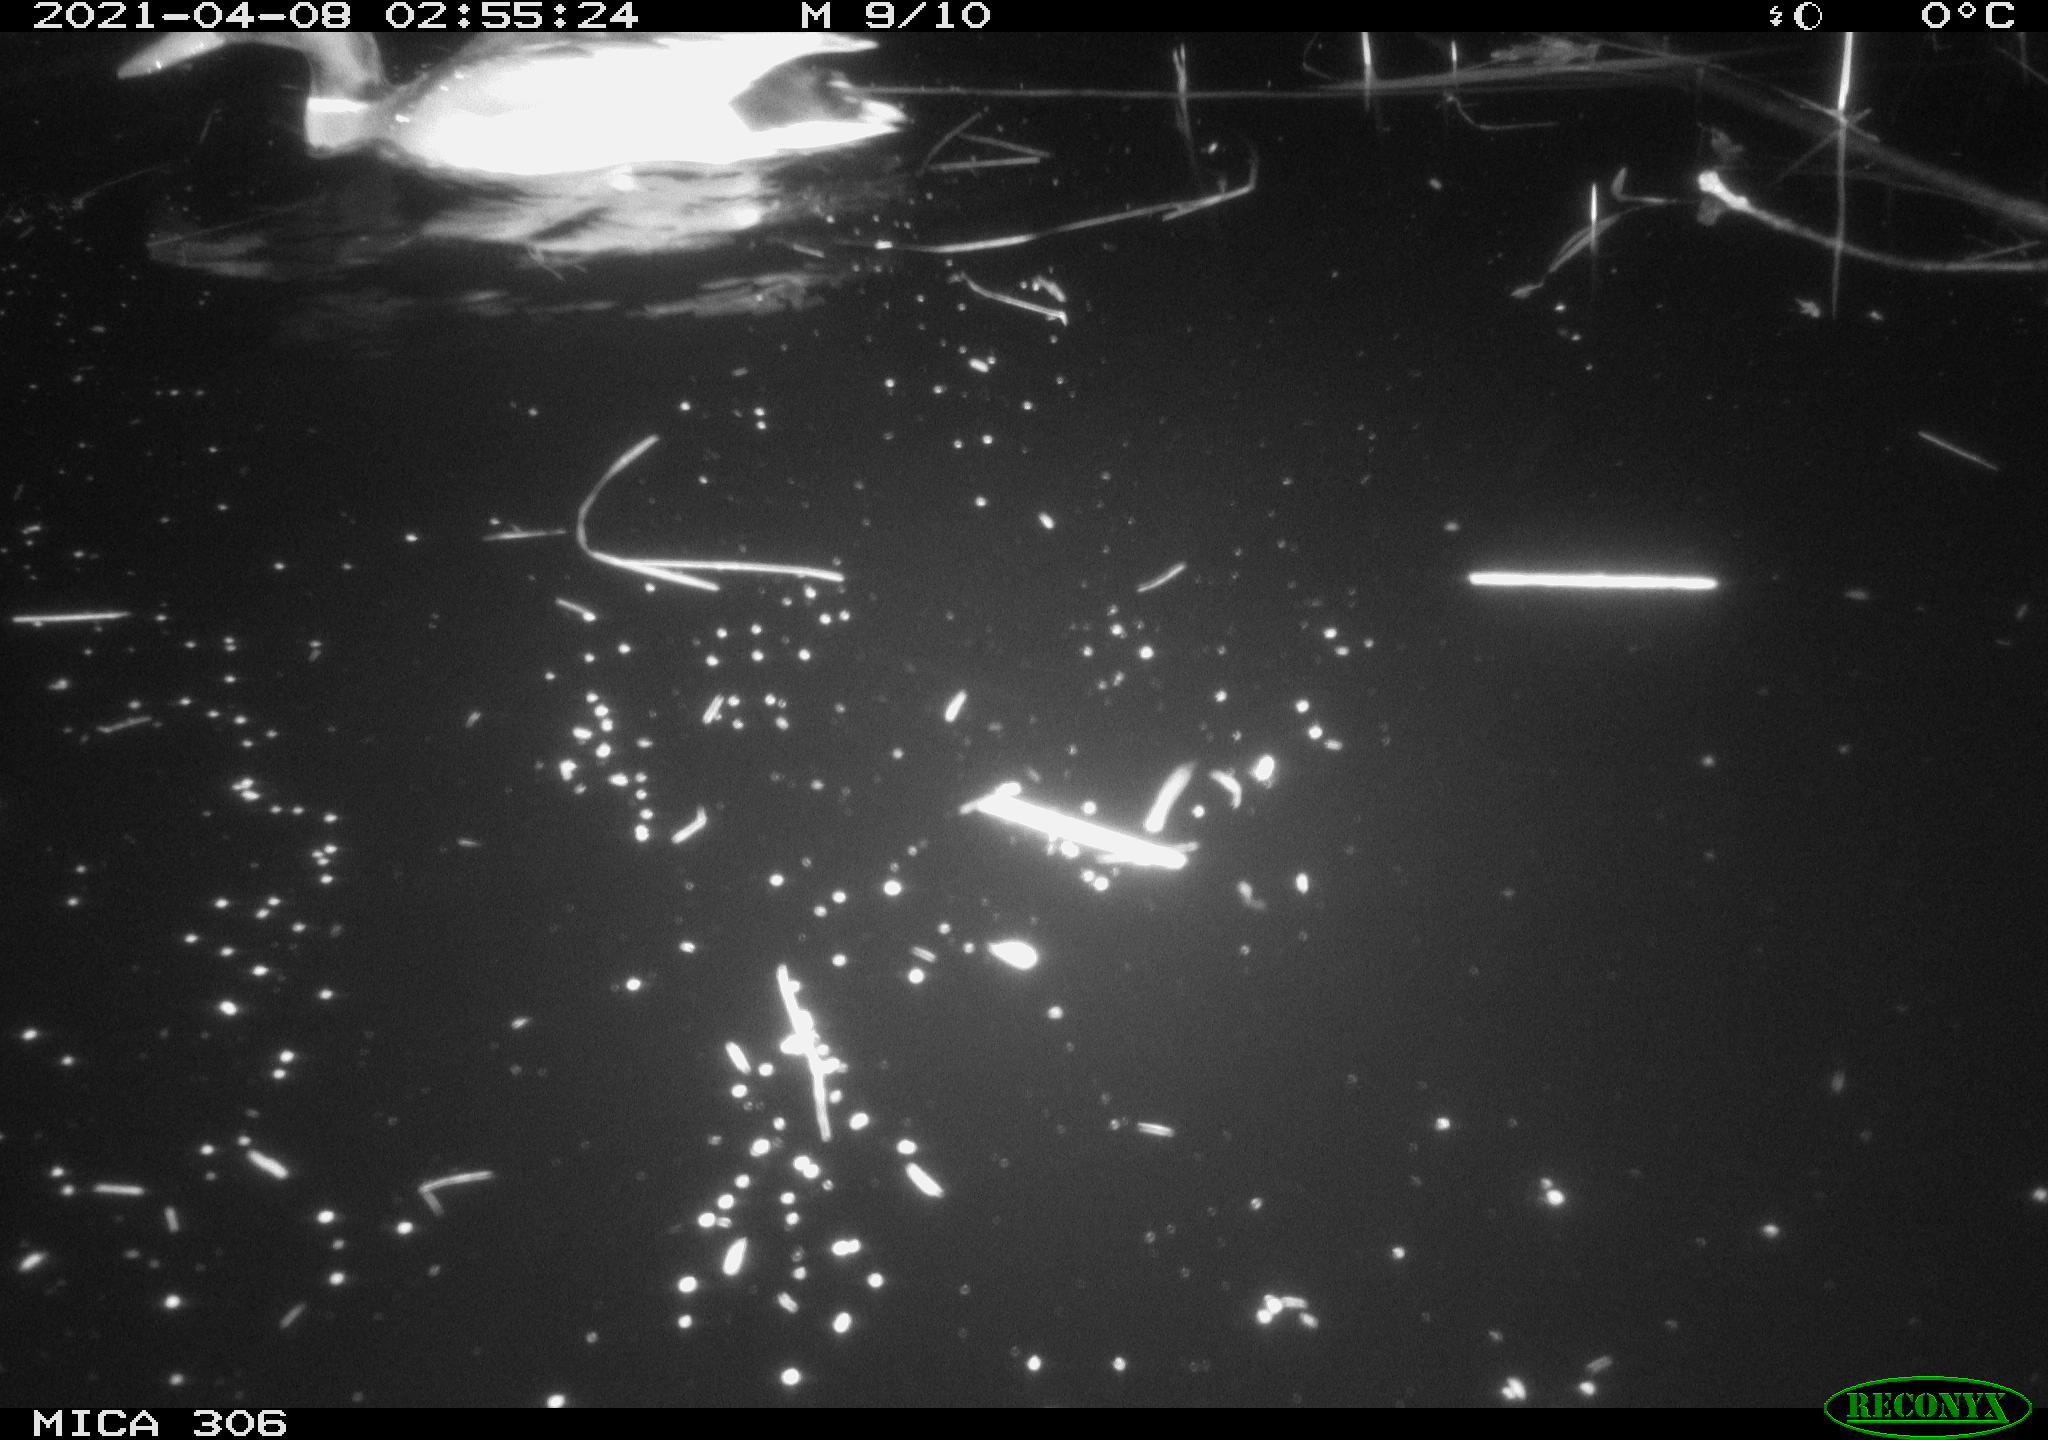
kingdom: Animalia
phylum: Chordata
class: Aves
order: Anseriformes
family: Anatidae
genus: Anas
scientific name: Anas
